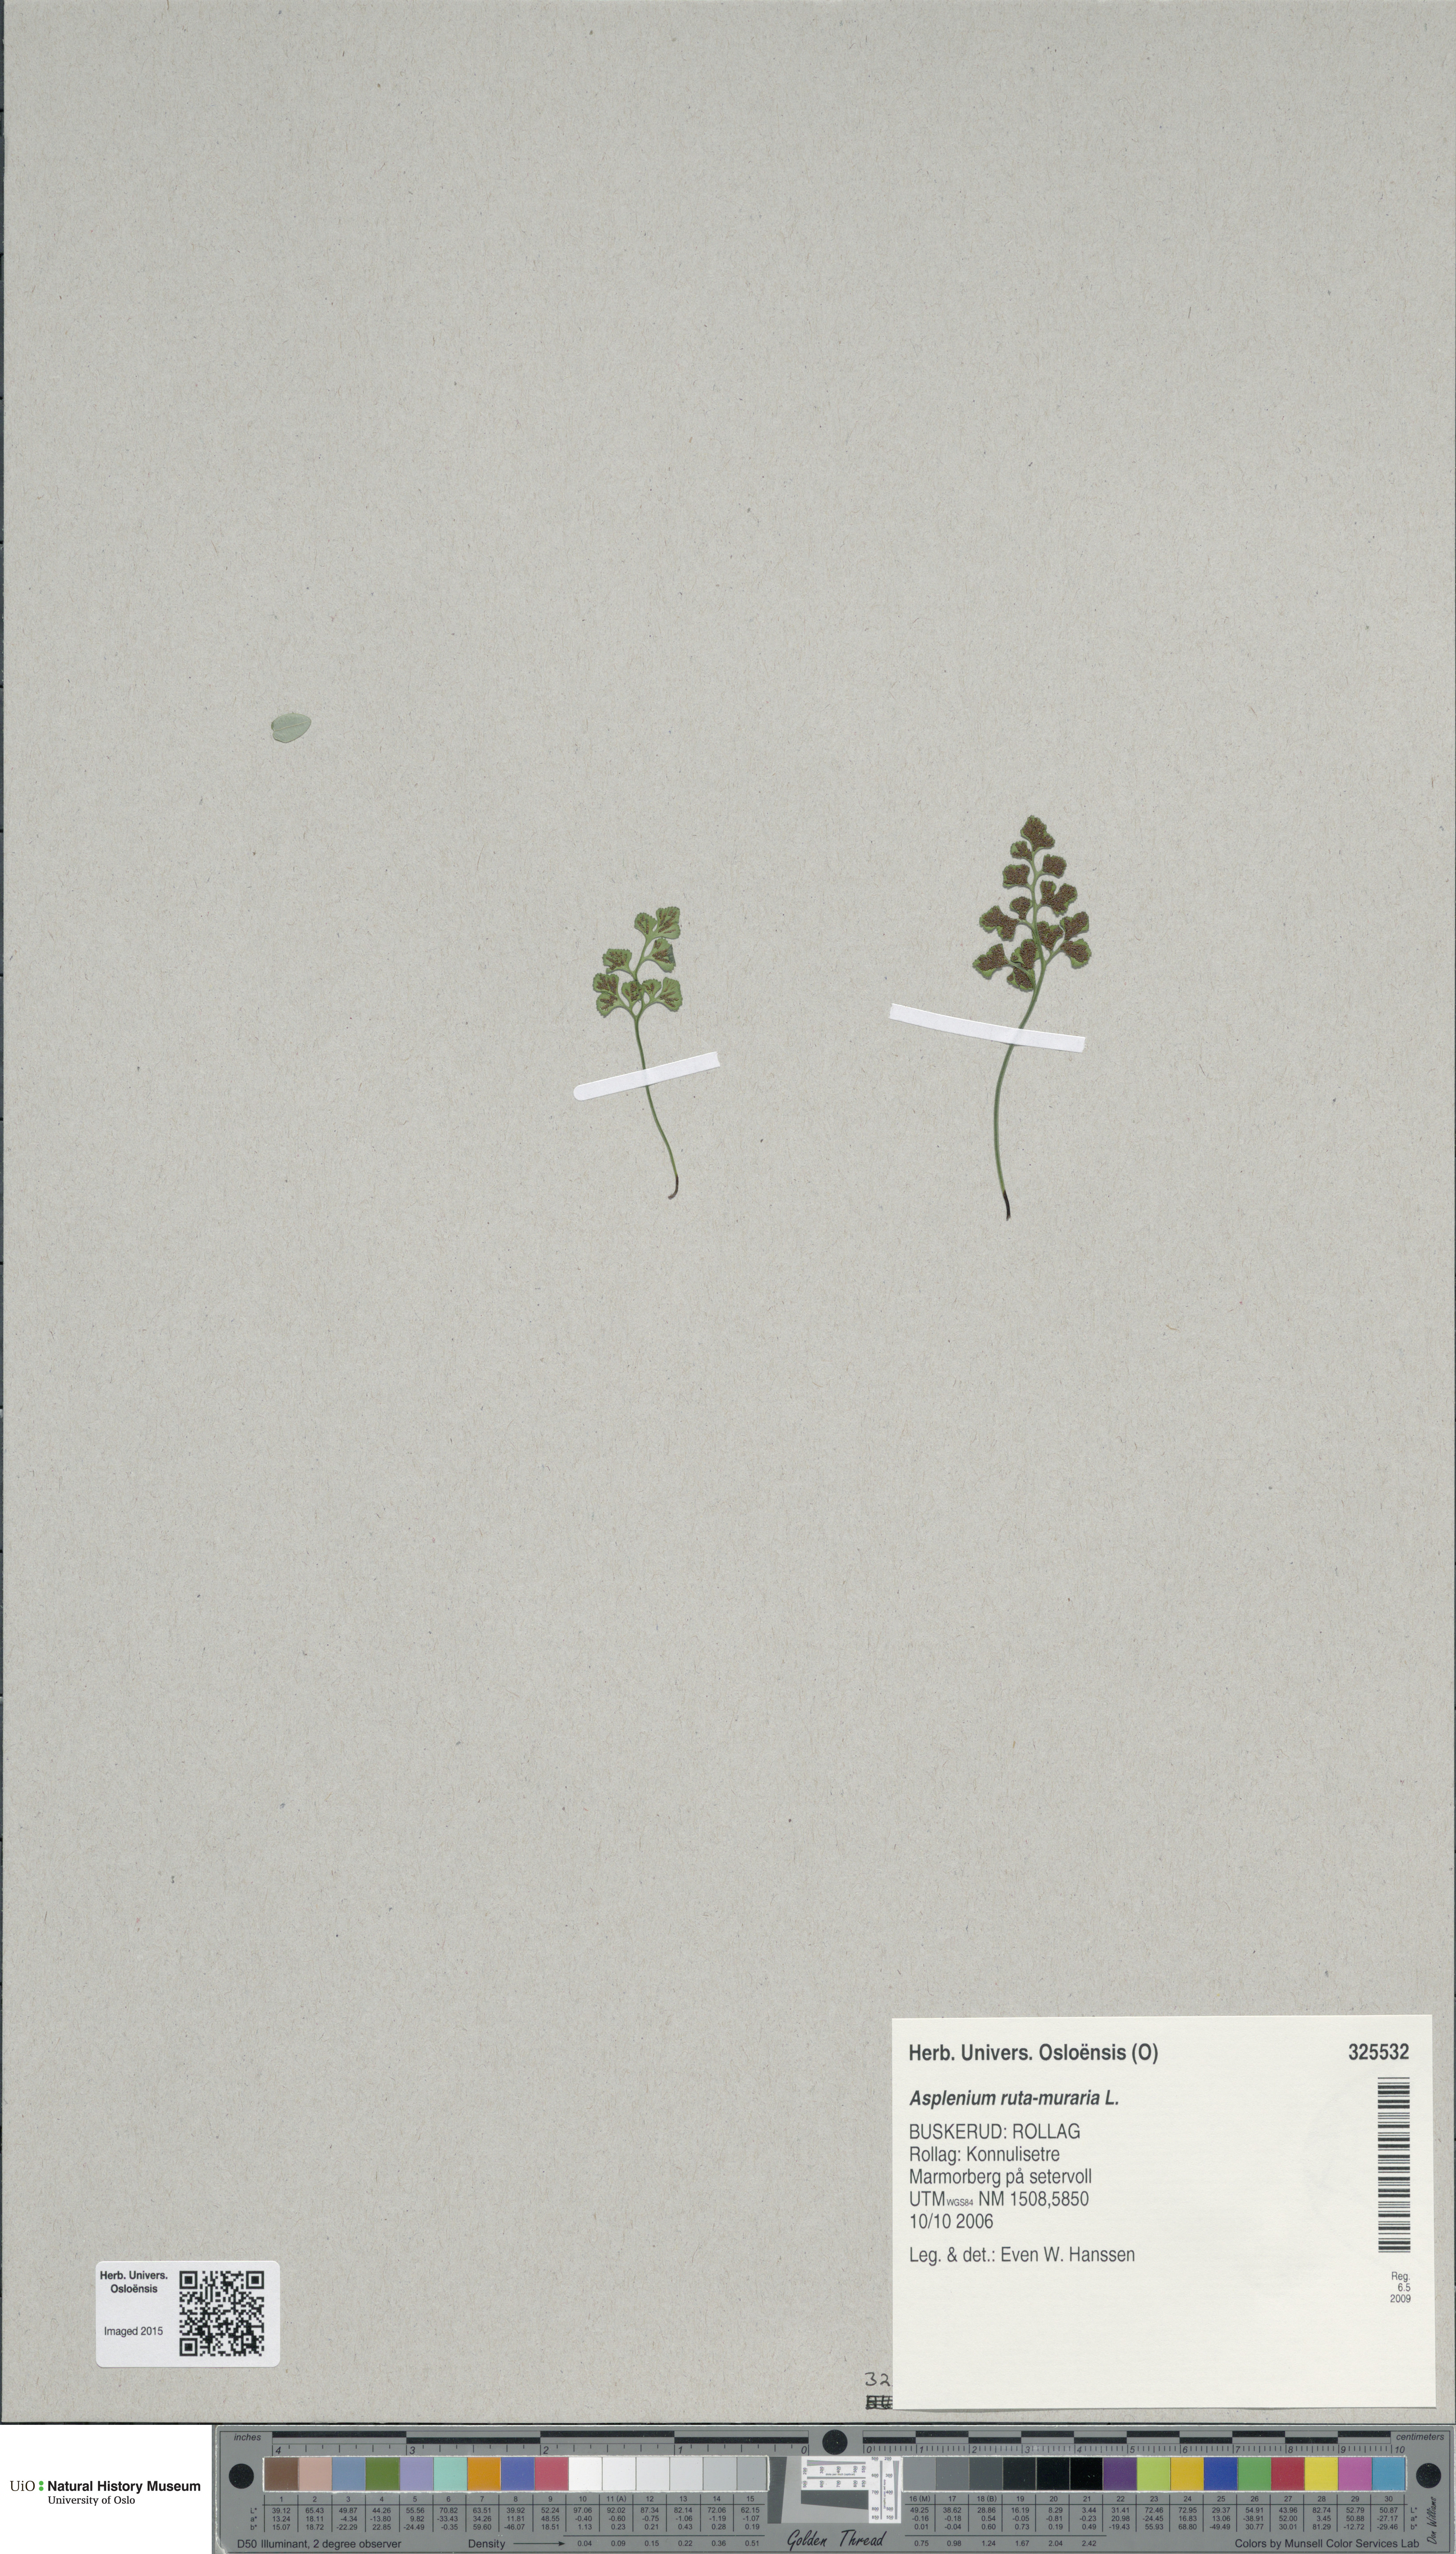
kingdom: Plantae
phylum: Tracheophyta
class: Polypodiopsida
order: Polypodiales
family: Aspleniaceae
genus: Asplenium
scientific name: Asplenium ruta-muraria
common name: Wall-rue
